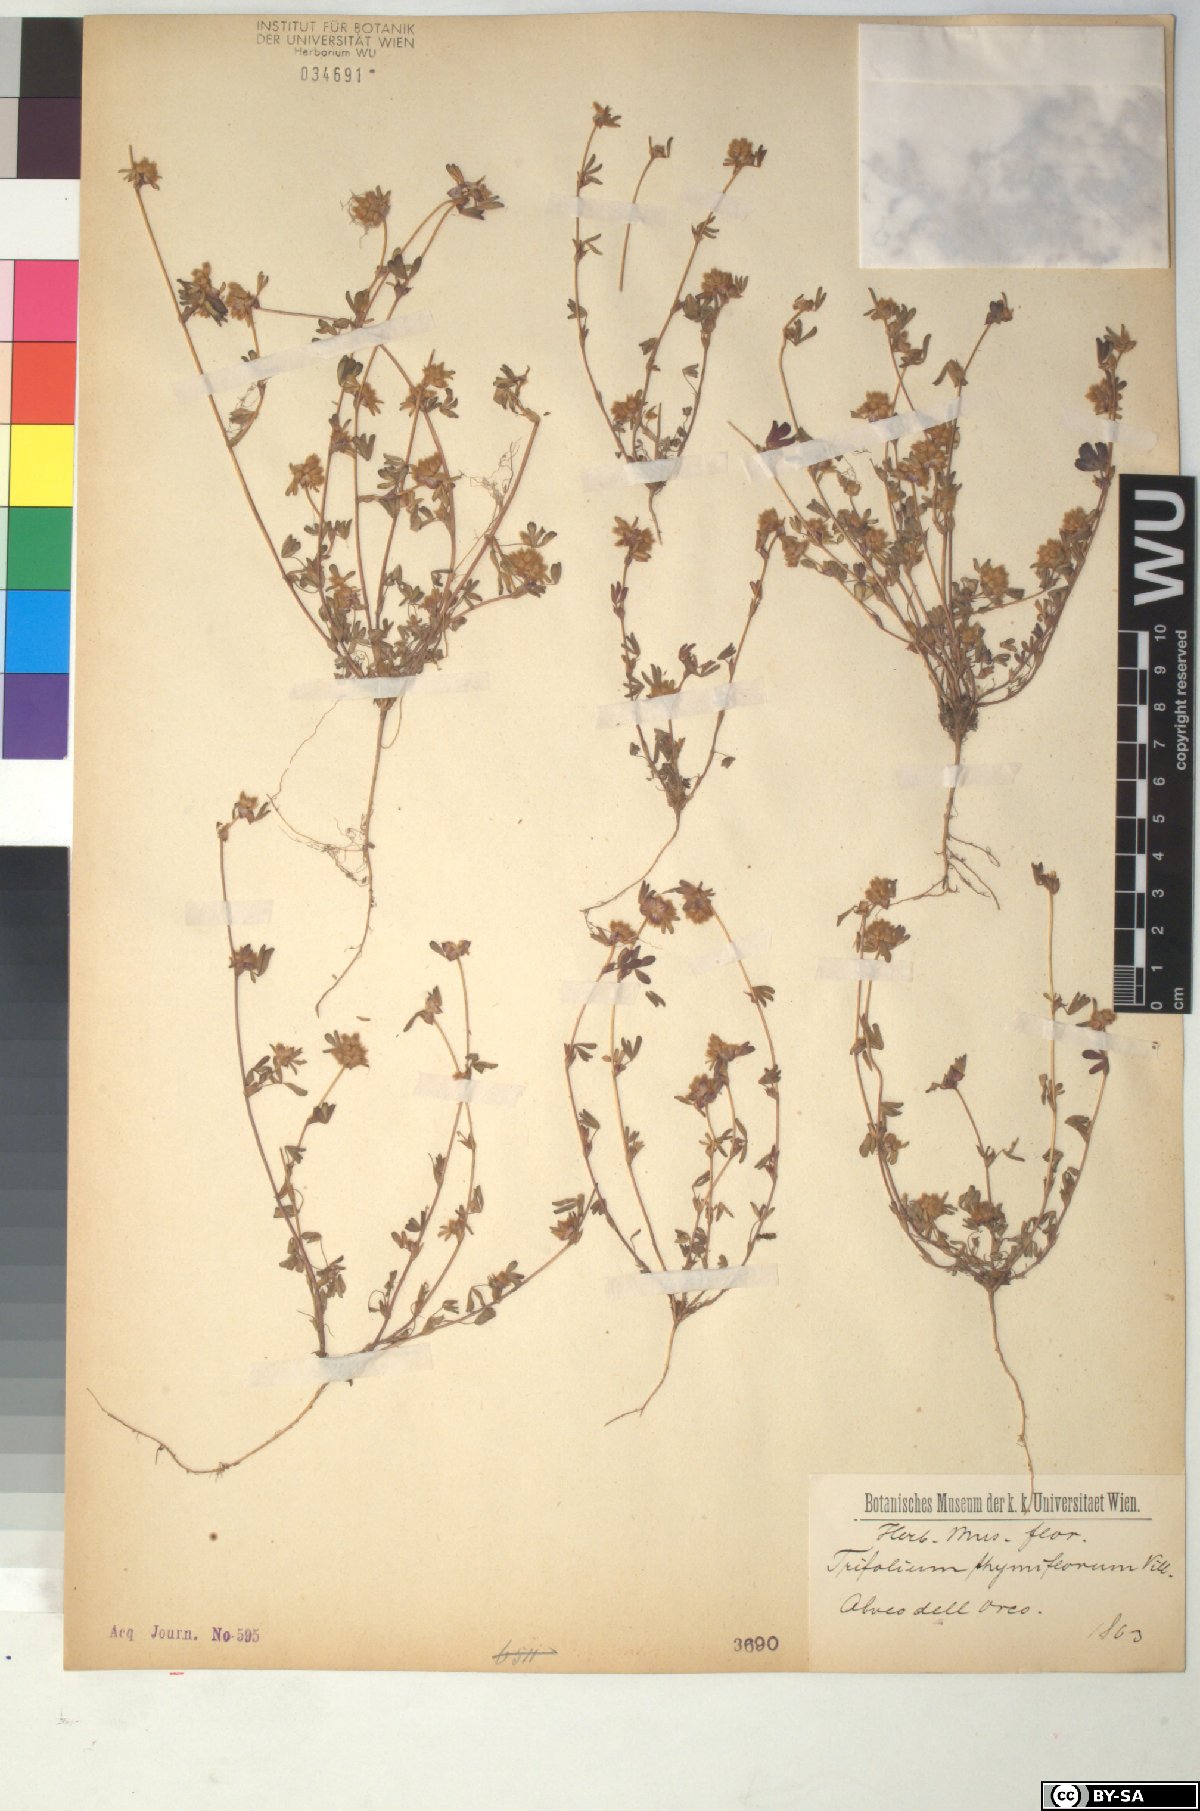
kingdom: Plantae
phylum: Tracheophyta
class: Magnoliopsida
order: Fabales
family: Fabaceae
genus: Trifolium
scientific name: Trifolium saxatile
